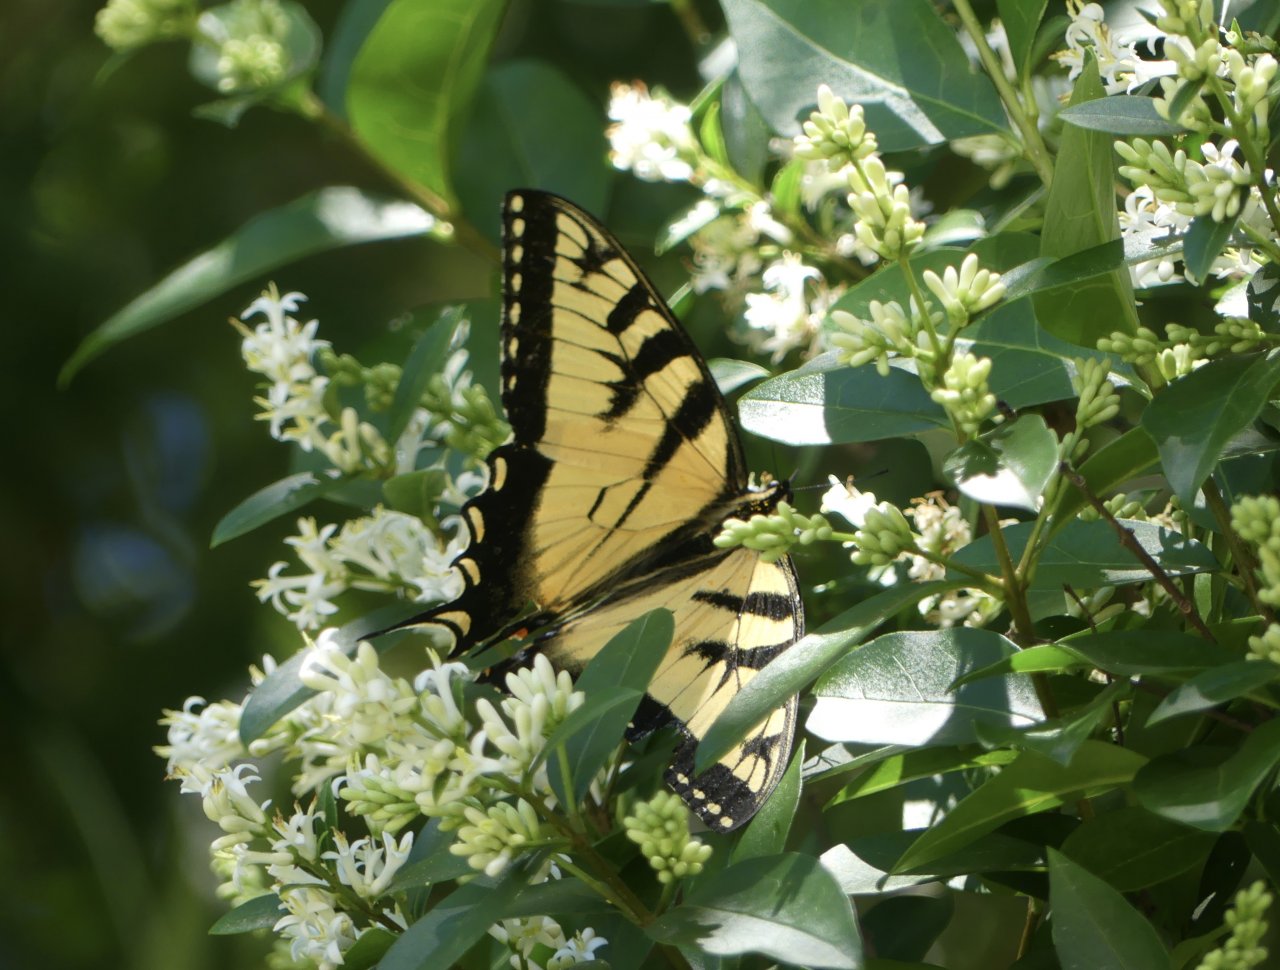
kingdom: Animalia
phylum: Arthropoda
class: Insecta
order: Lepidoptera
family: Papilionidae
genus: Pterourus
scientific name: Pterourus glaucus
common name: Eastern Tiger Swallowtail
